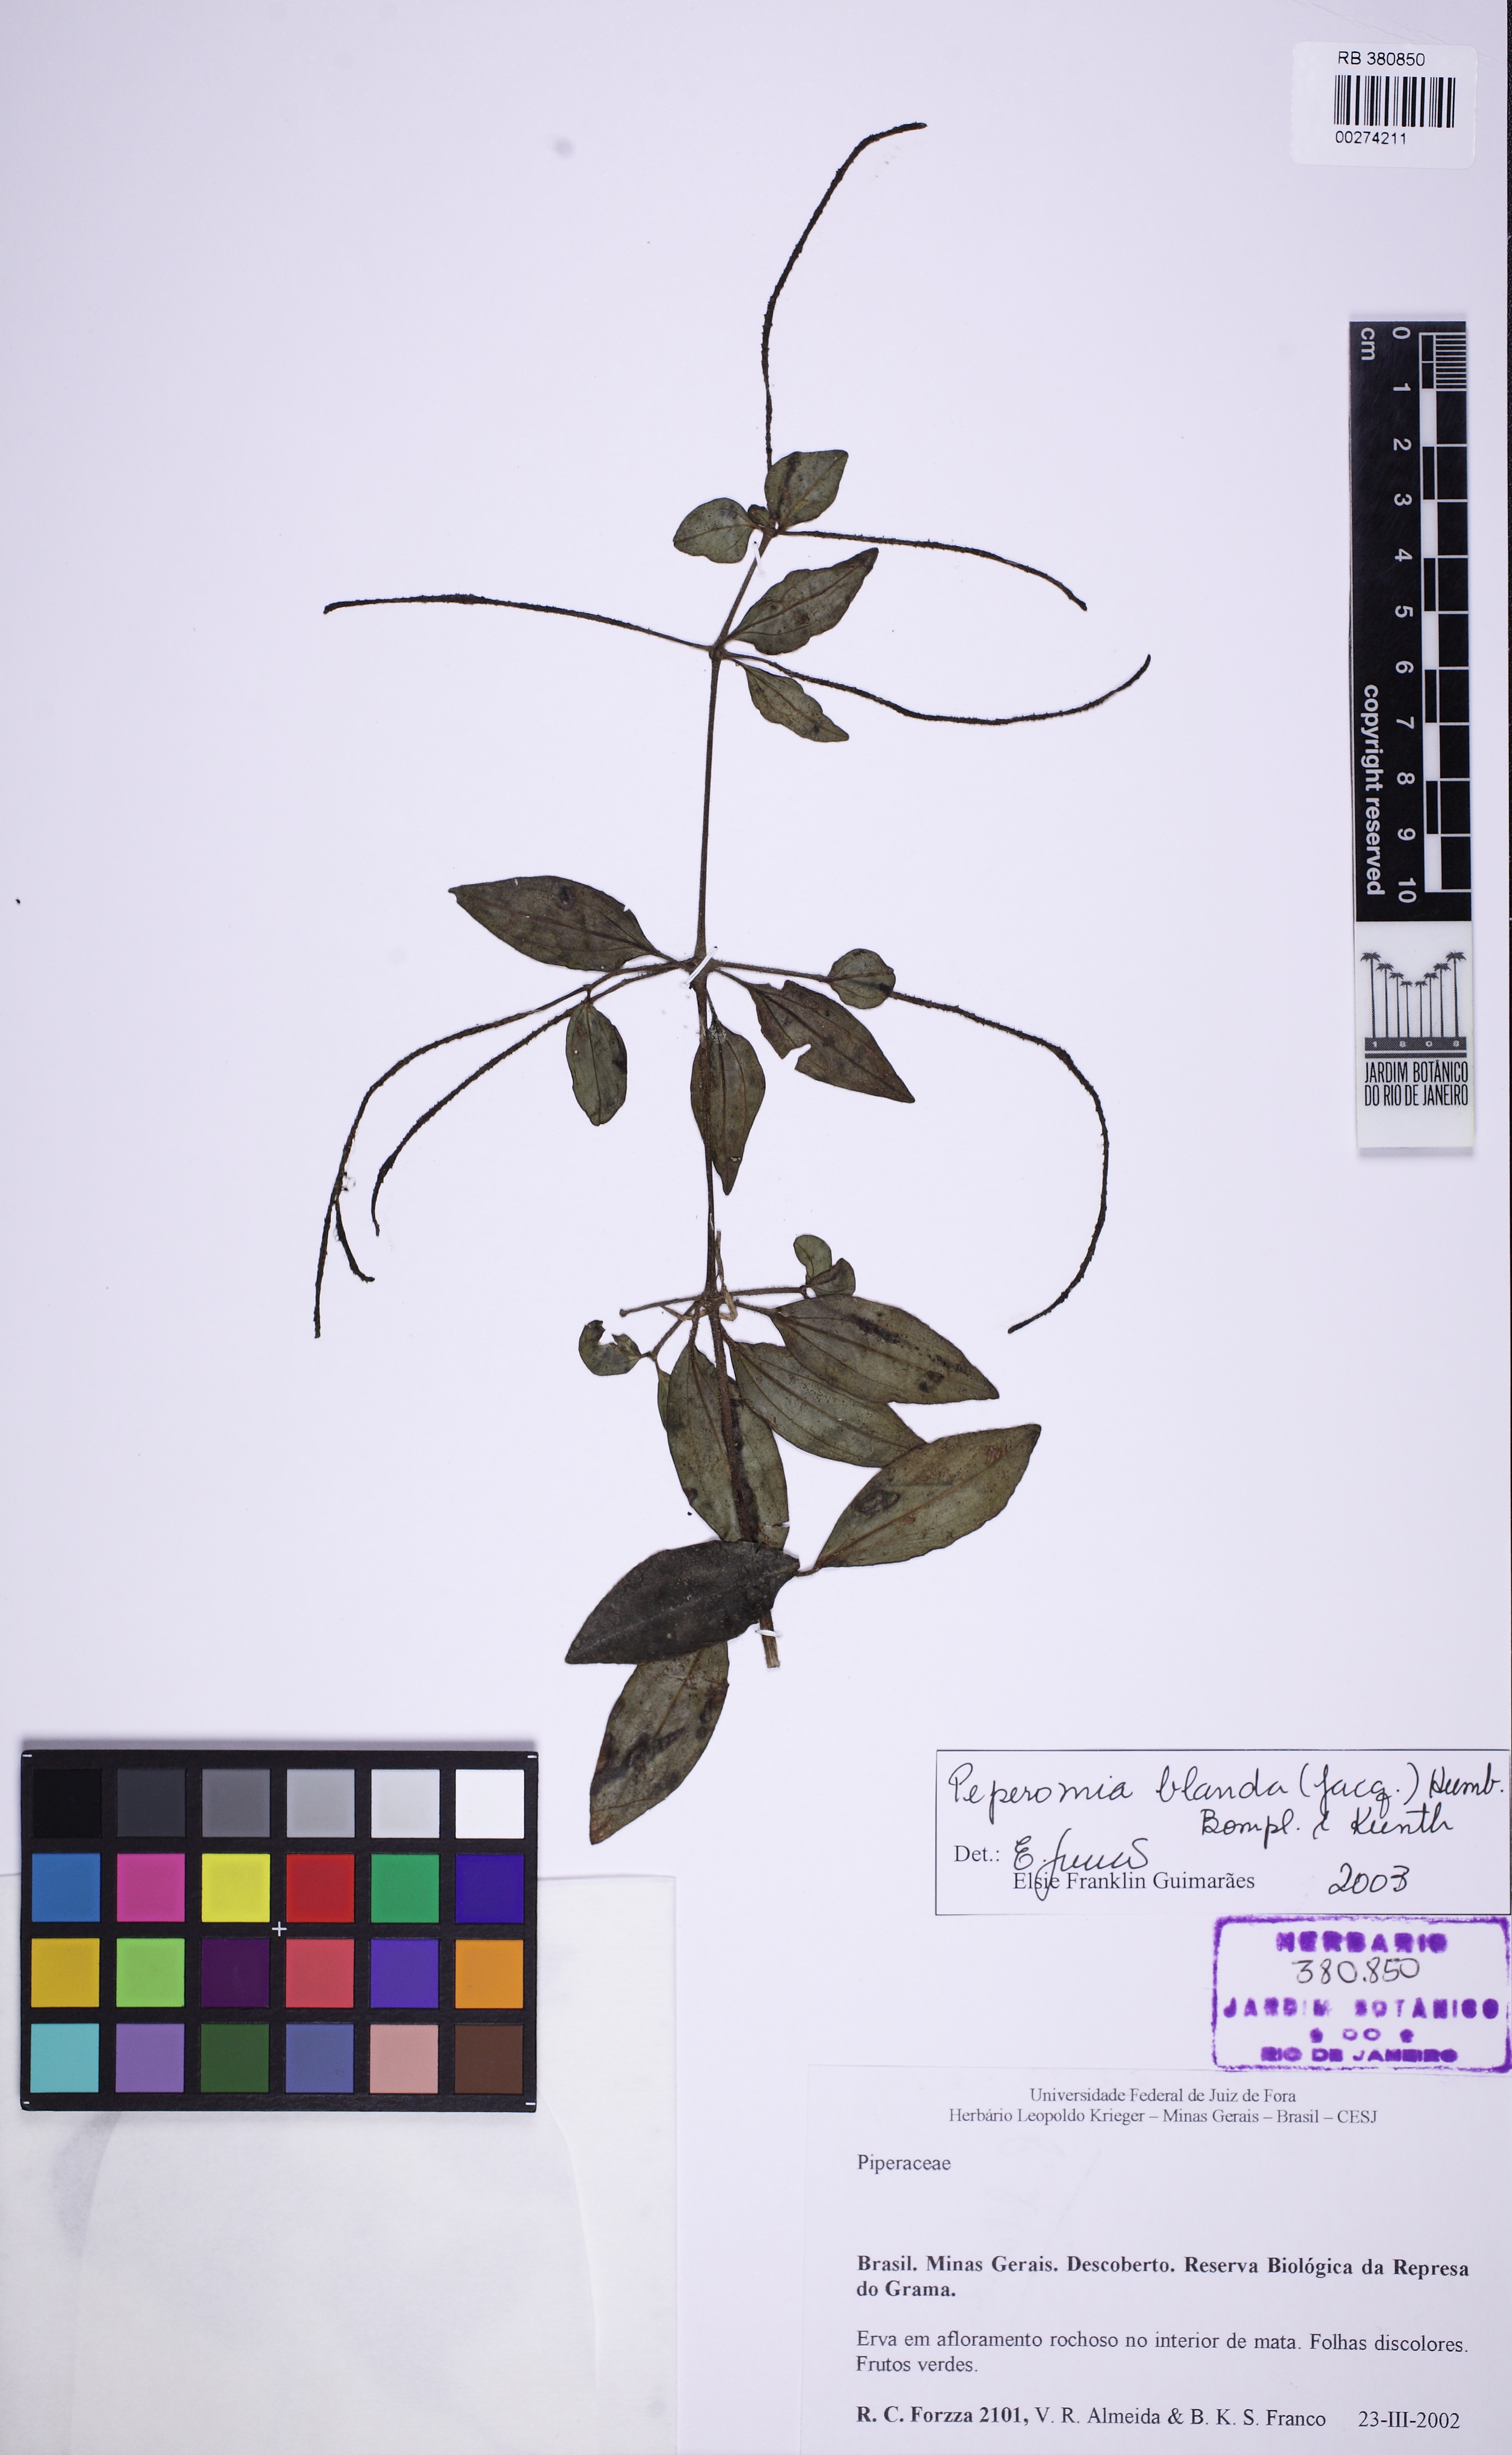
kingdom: Plantae
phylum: Tracheophyta
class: Magnoliopsida
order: Piperales
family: Piperaceae
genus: Peperomia
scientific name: Peperomia blanda
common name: Arid-land peperomia
